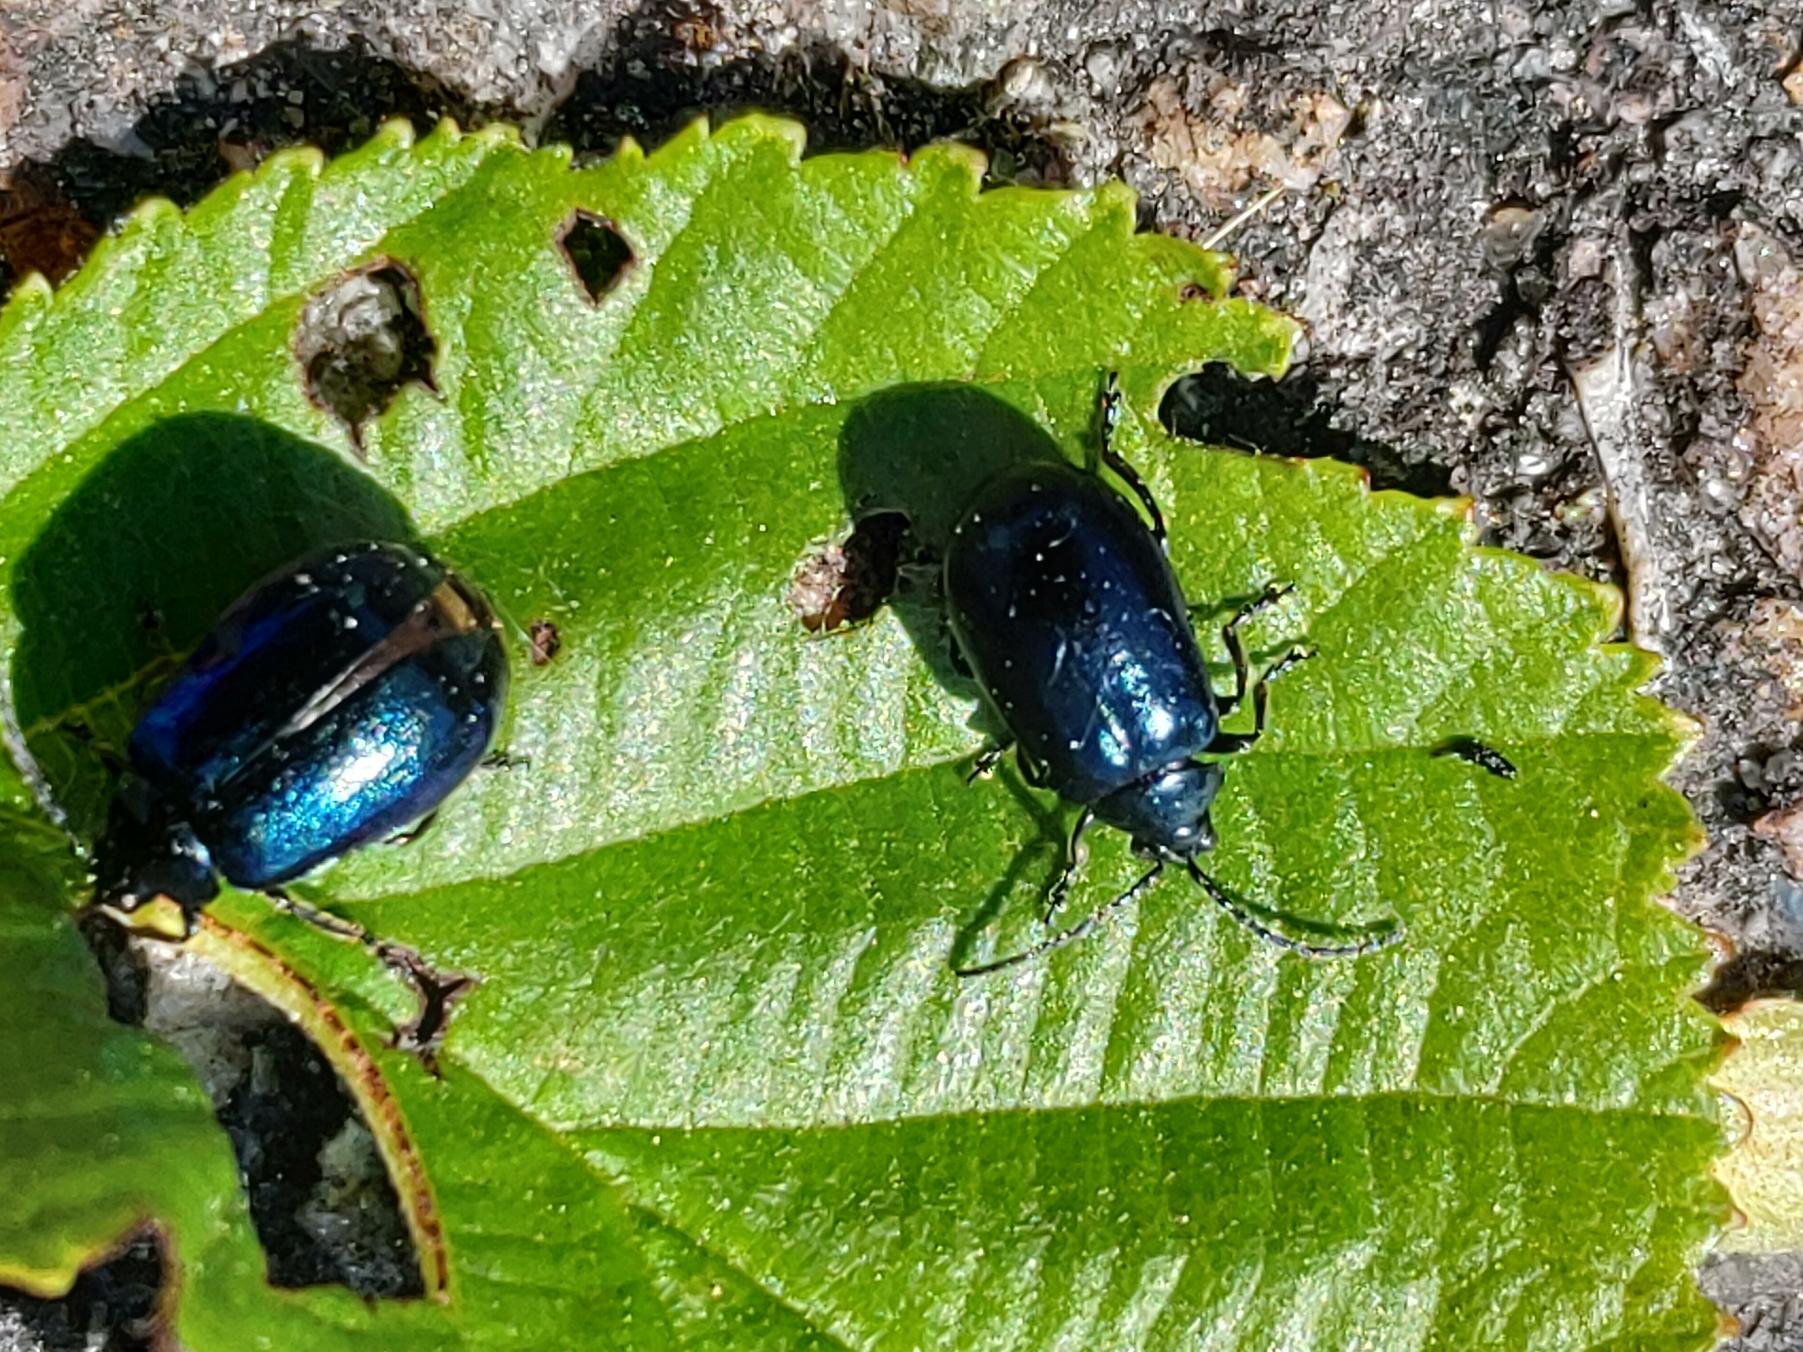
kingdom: Animalia
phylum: Arthropoda
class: Insecta
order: Coleoptera
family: Chrysomelidae
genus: Agelastica
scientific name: Agelastica alni
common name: Ellebladbille
